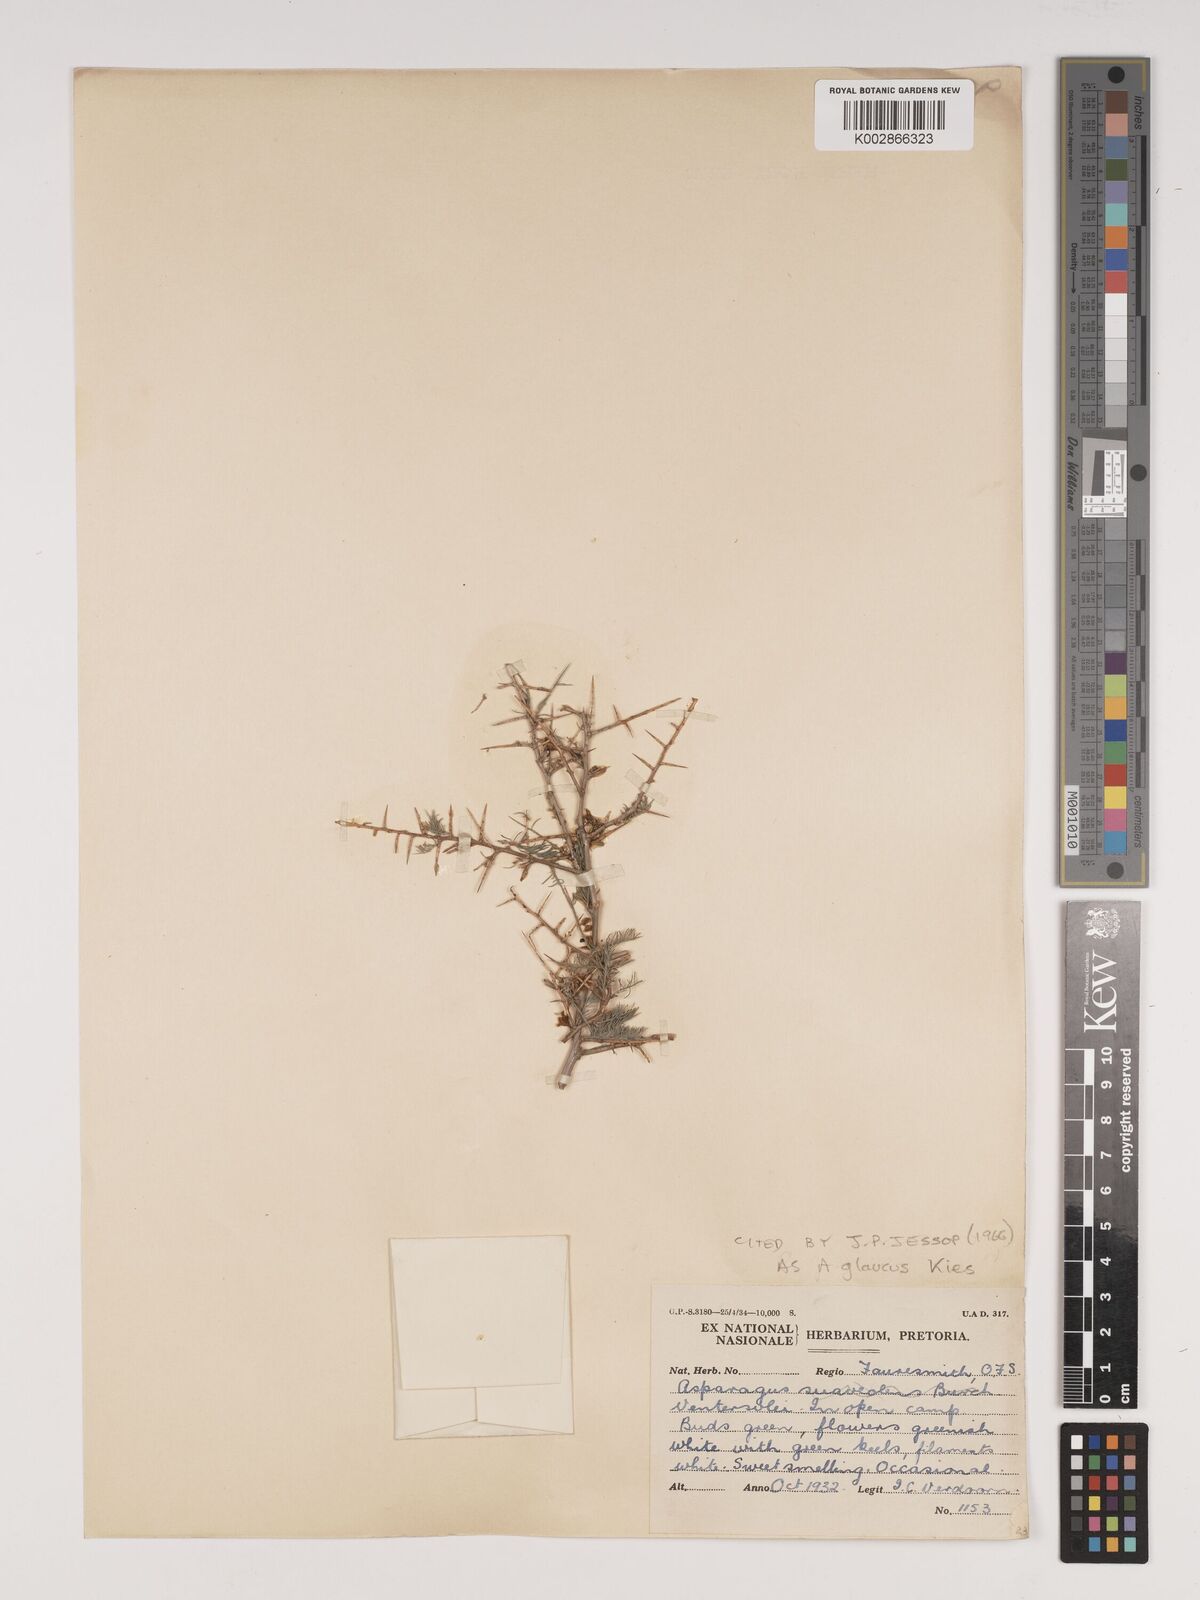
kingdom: Plantae
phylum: Tracheophyta
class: Liliopsida
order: Asparagales
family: Asparagaceae
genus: Asparagus
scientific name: Asparagus glaucus
